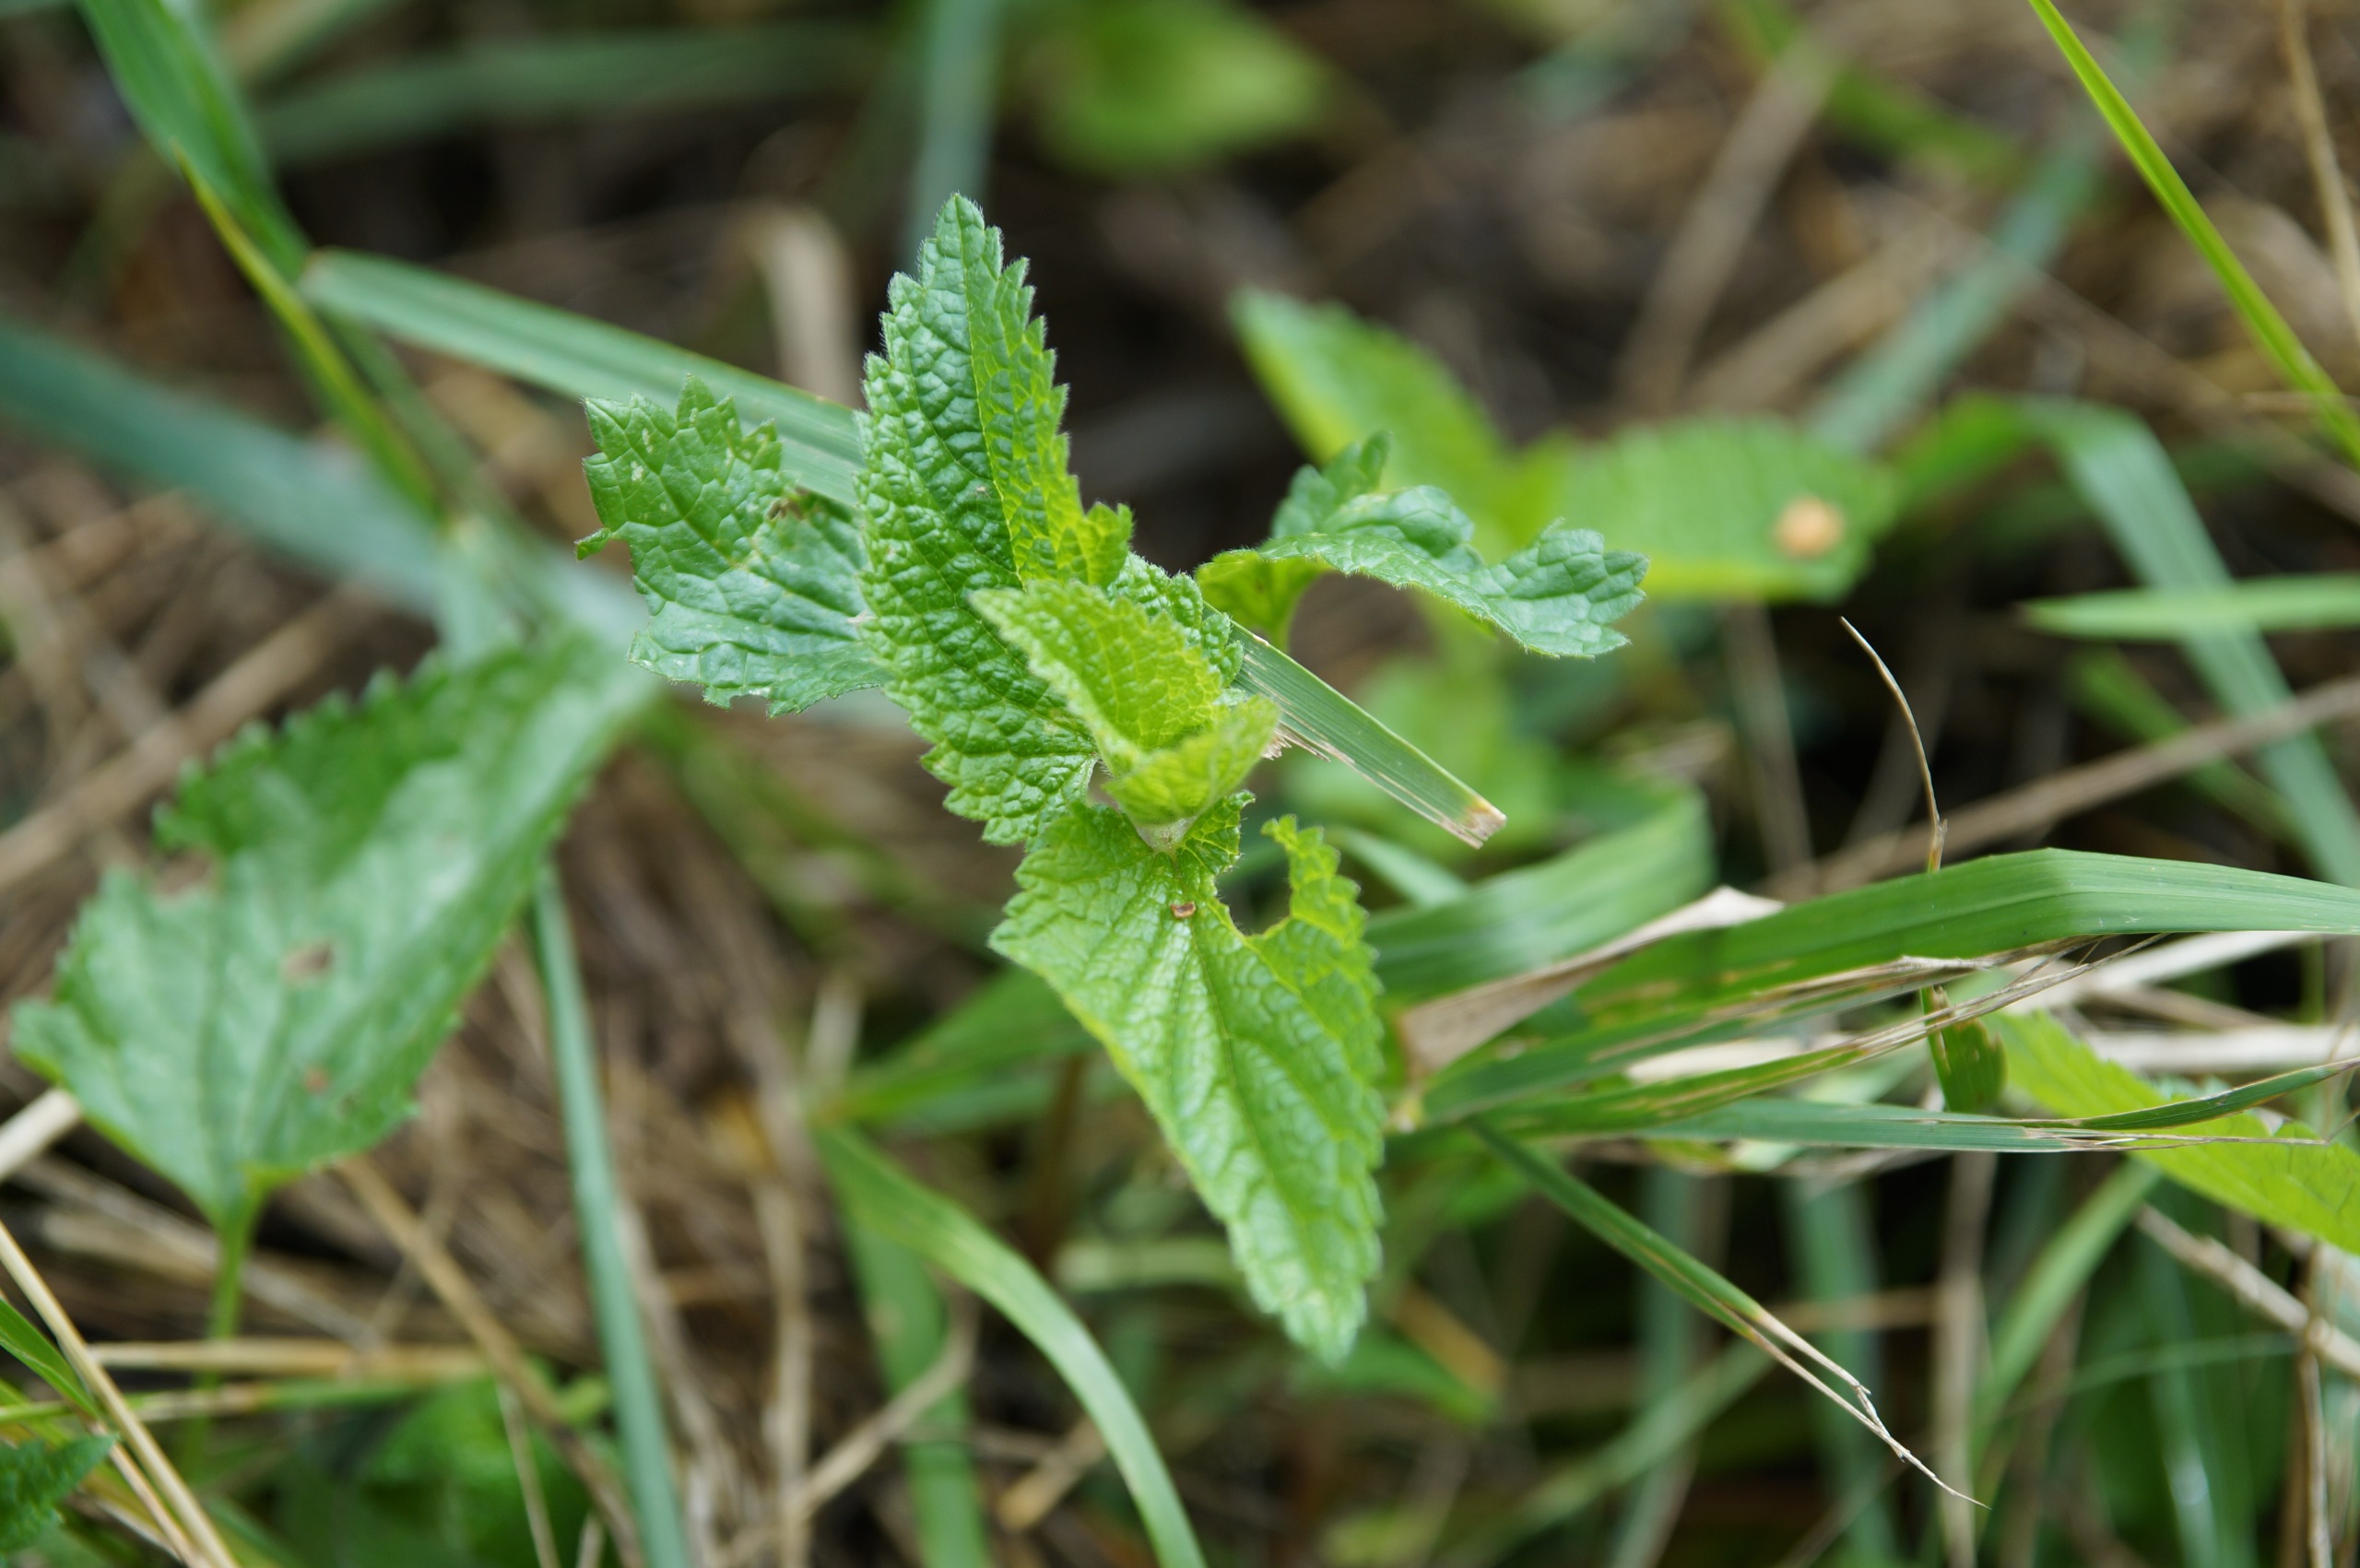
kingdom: Plantae
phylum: Tracheophyta
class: Magnoliopsida
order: Lamiales
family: Lamiaceae
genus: Melissa
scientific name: Melissa officinalis
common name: Citronmelisse
